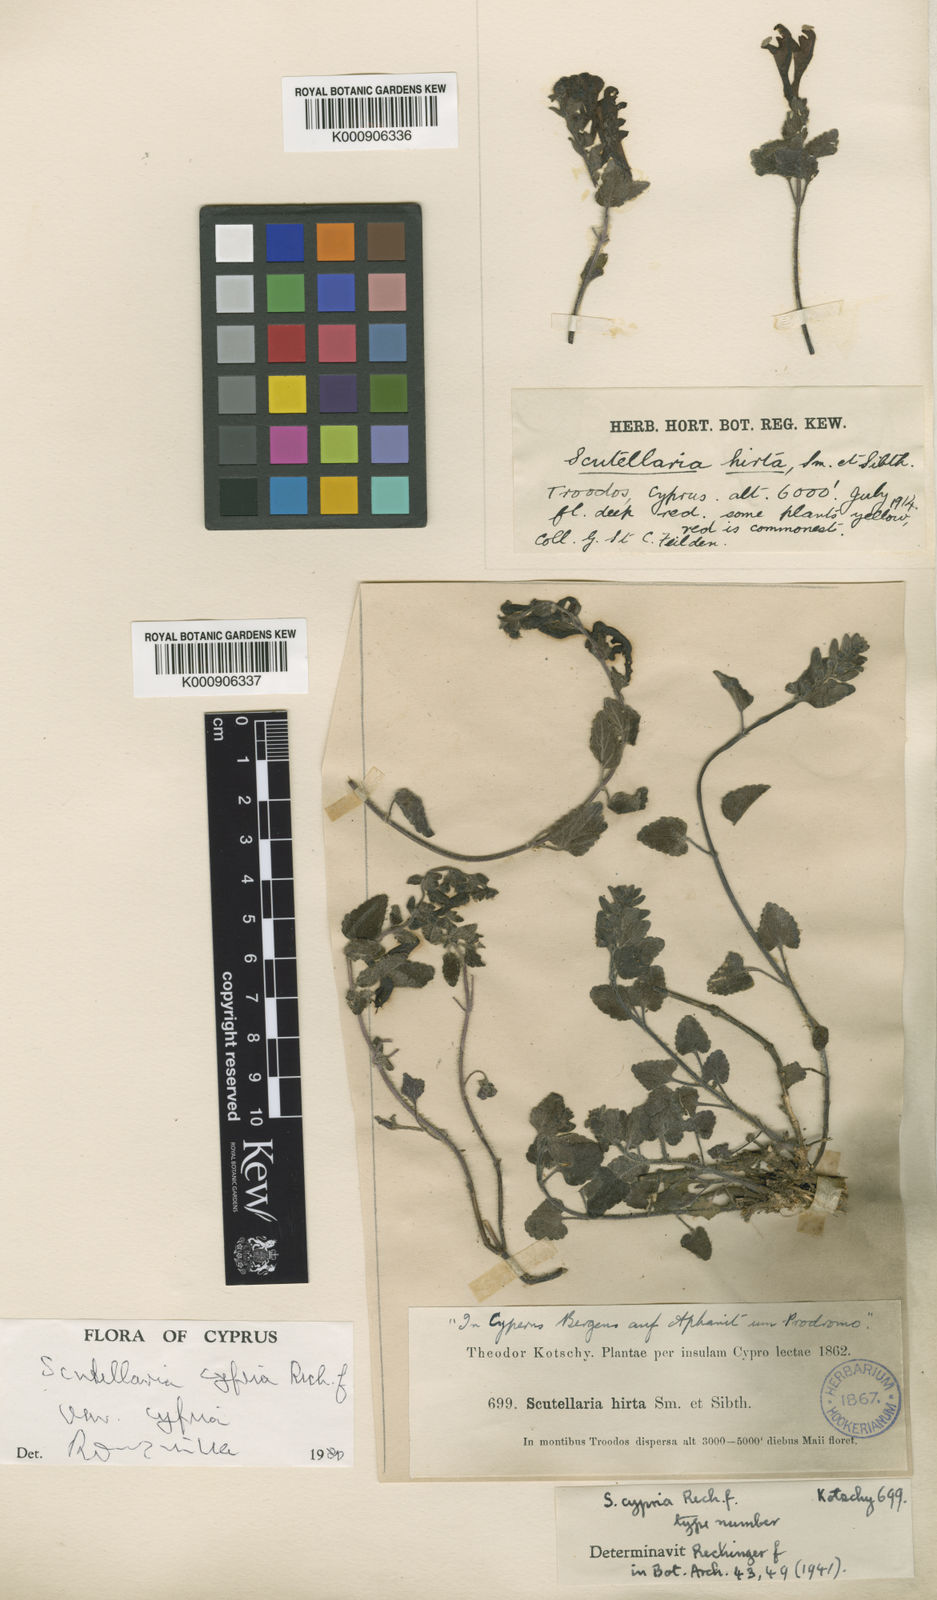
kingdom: Plantae
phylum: Tracheophyta
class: Magnoliopsida
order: Lamiales
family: Lamiaceae
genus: Scutellaria
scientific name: Scutellaria
